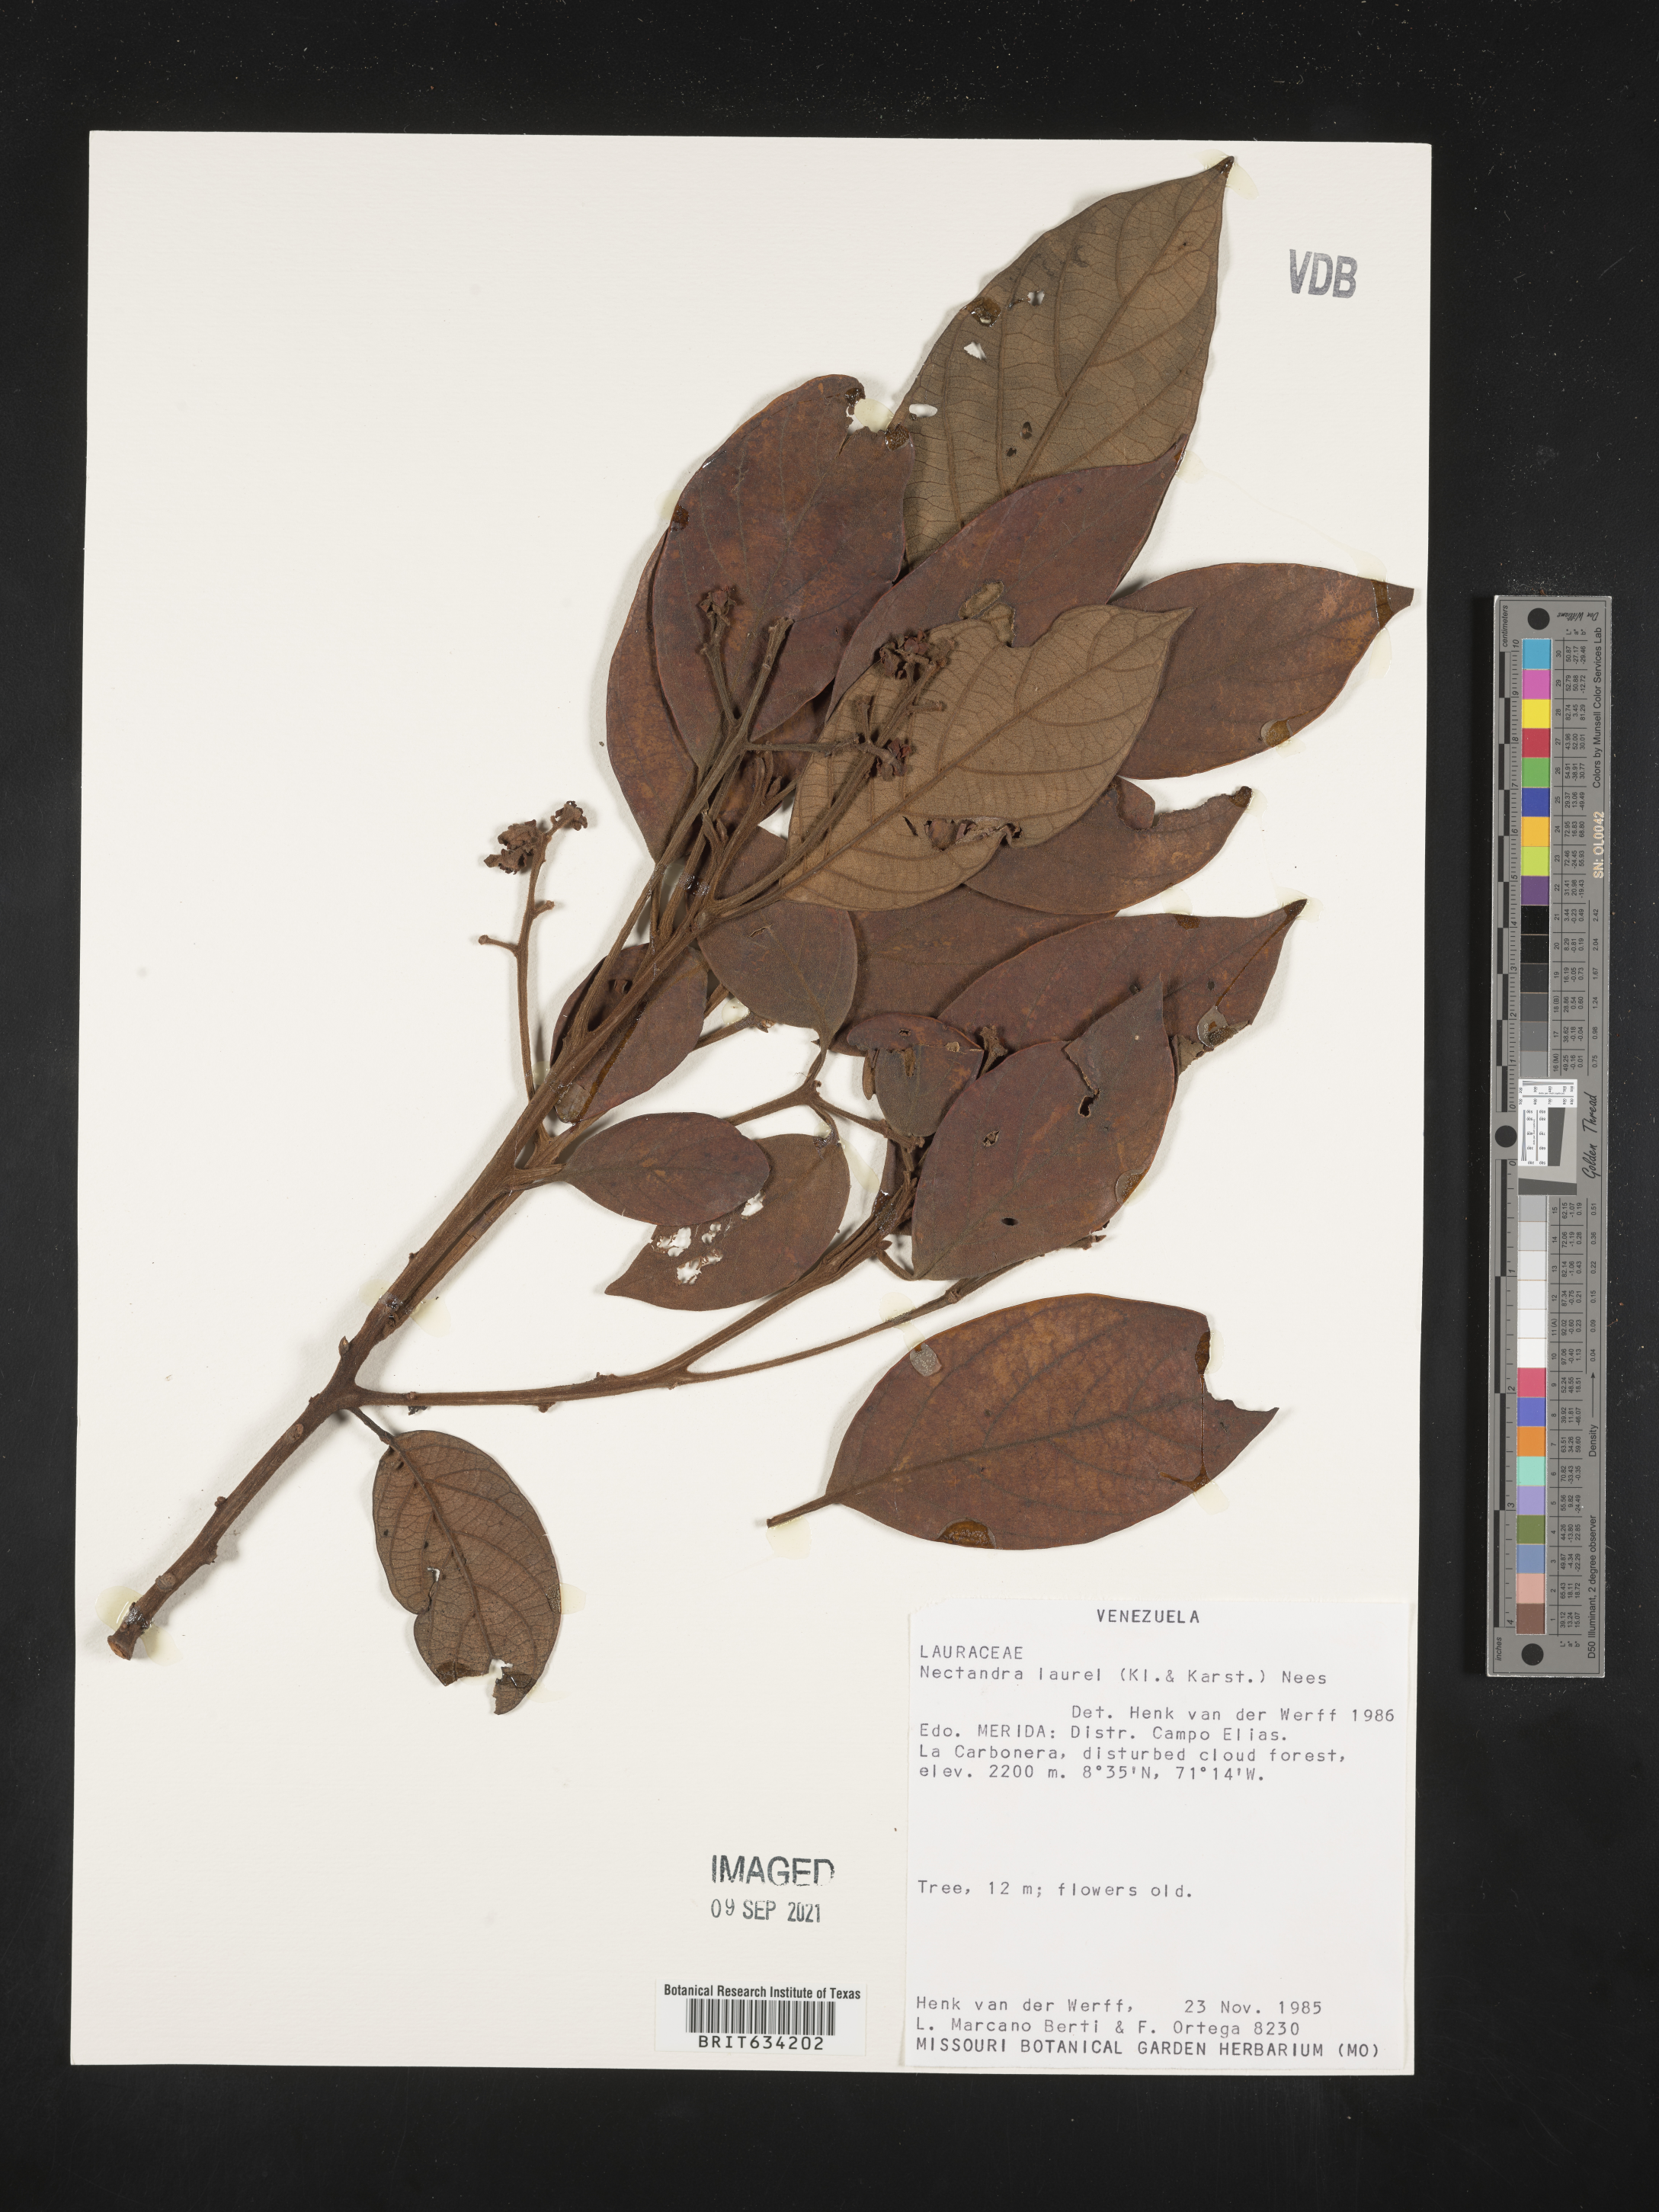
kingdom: Plantae
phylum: Tracheophyta
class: Magnoliopsida
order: Laurales
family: Lauraceae
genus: Nectandra
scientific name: Nectandra
